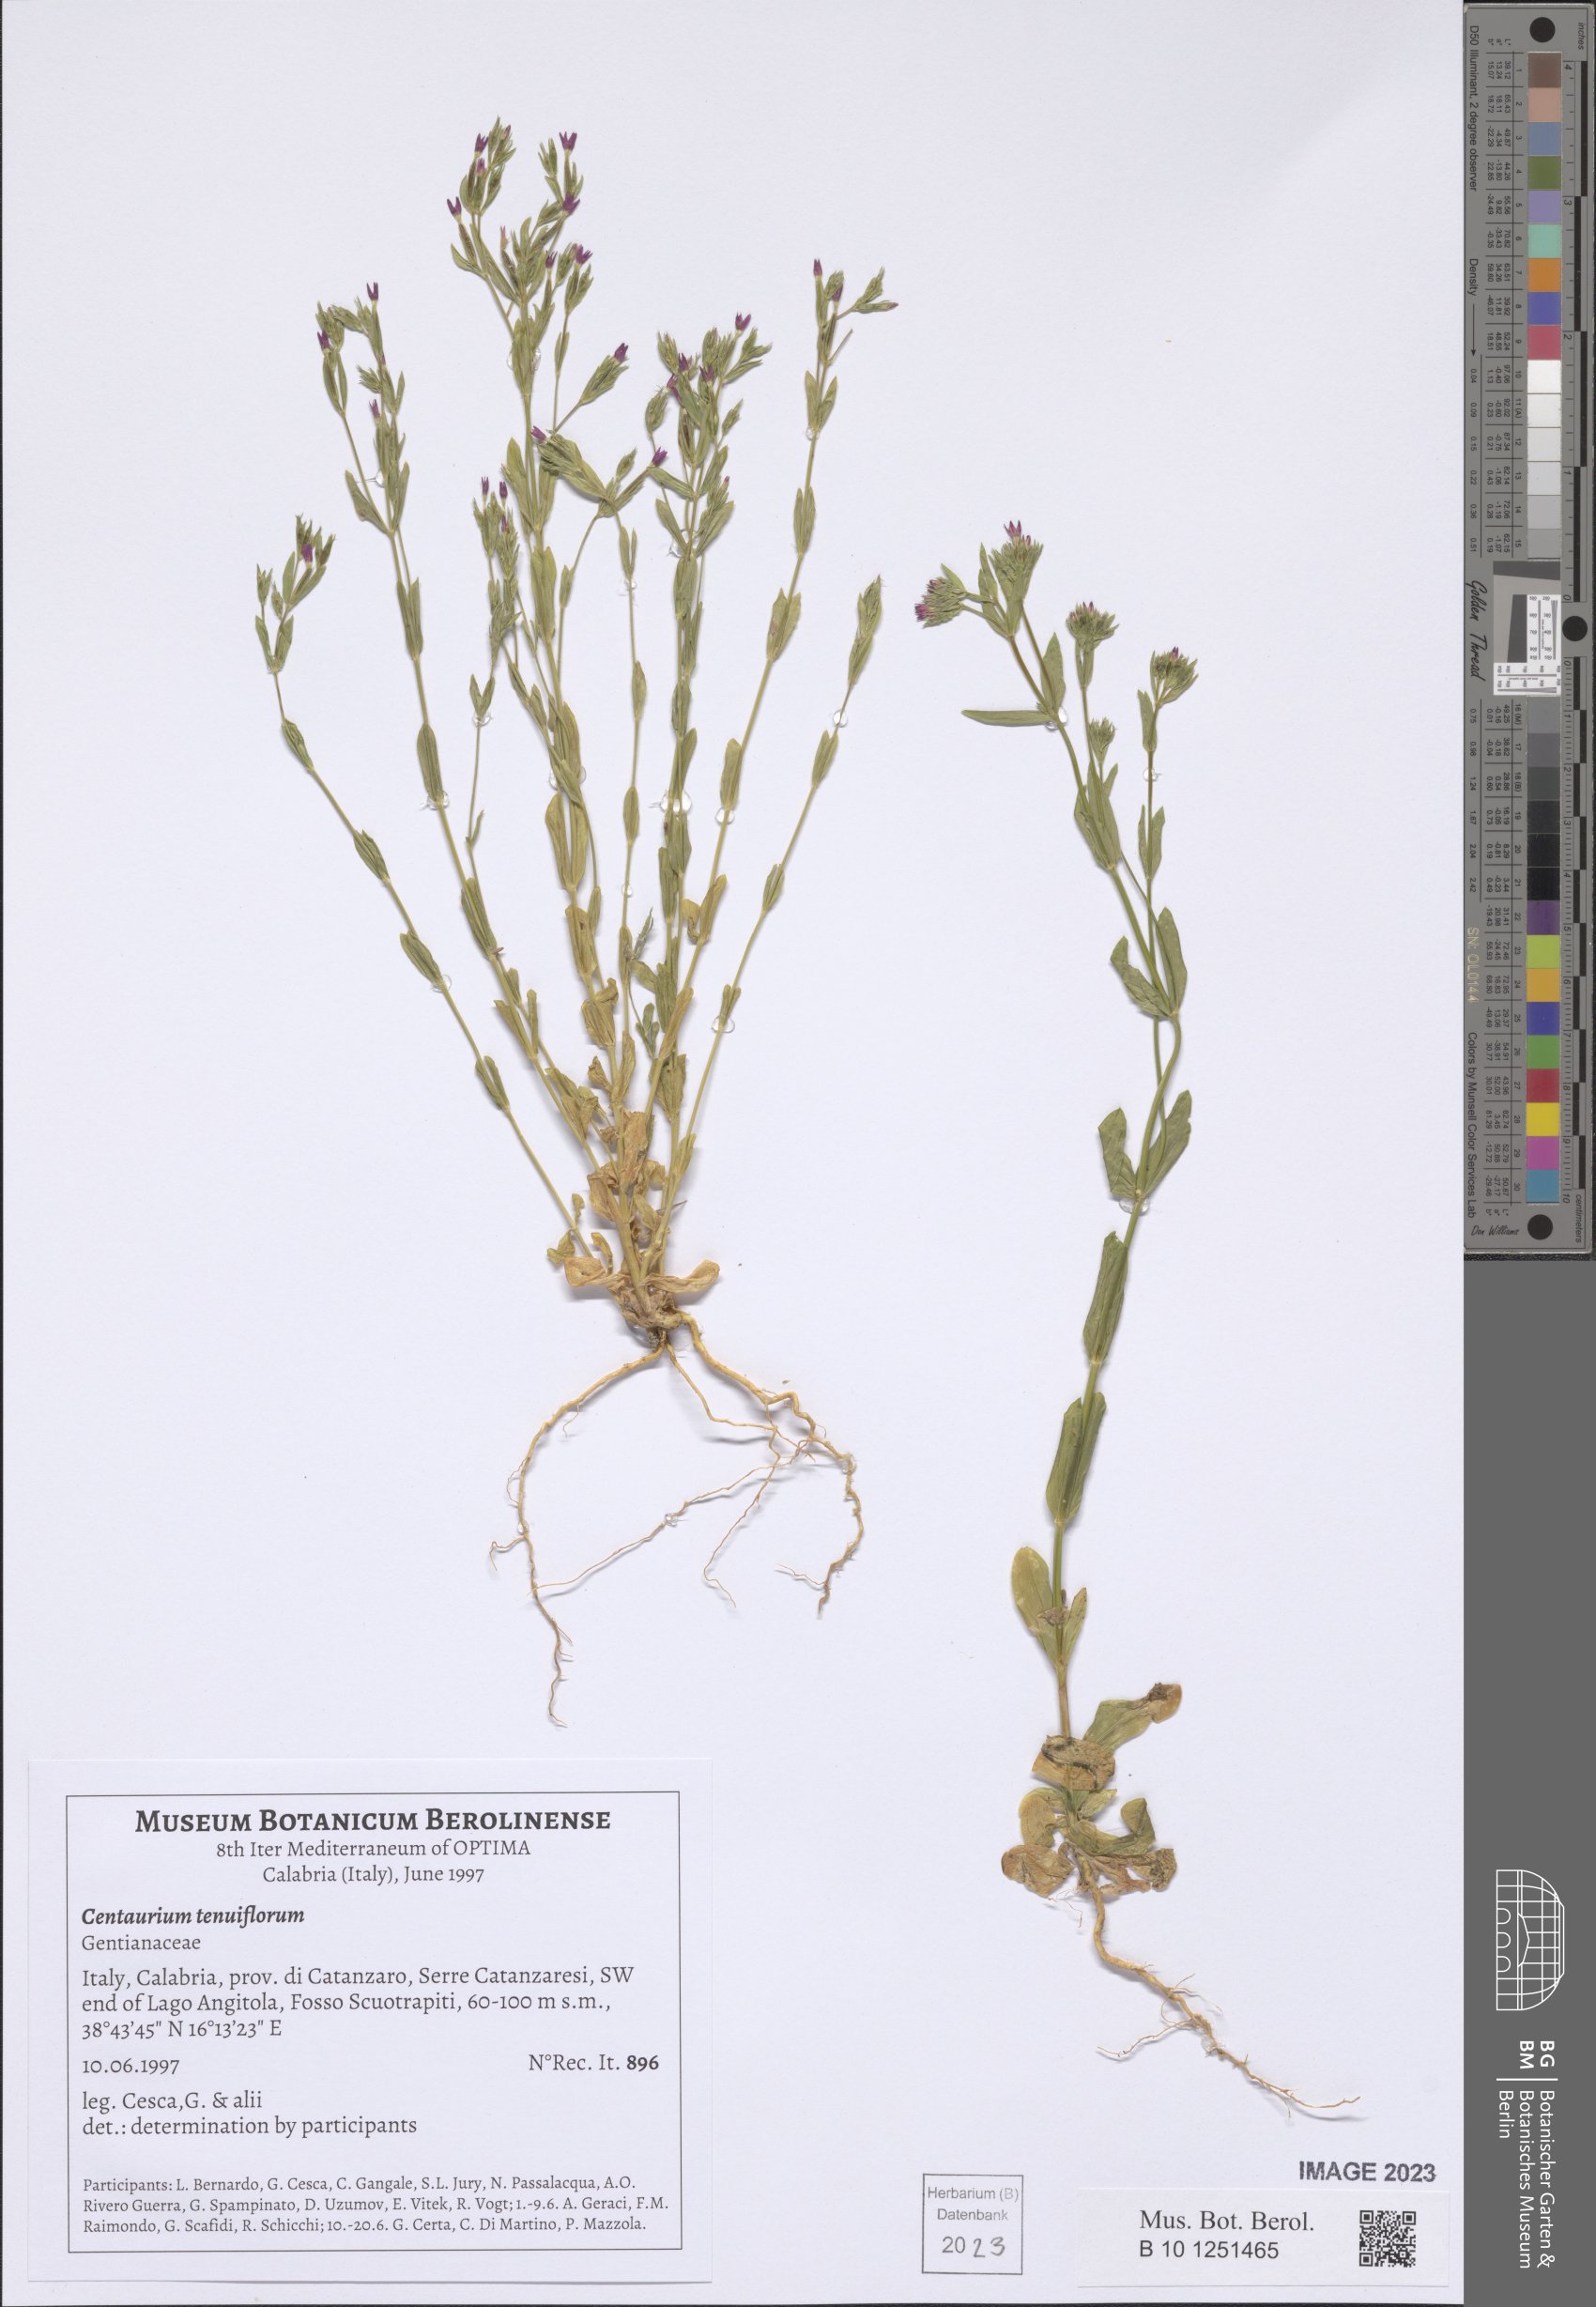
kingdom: Plantae
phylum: Tracheophyta
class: Magnoliopsida
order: Gentianales
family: Gentianaceae
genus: Centaurium
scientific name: Centaurium tenuiflorum
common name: Slender centaury
